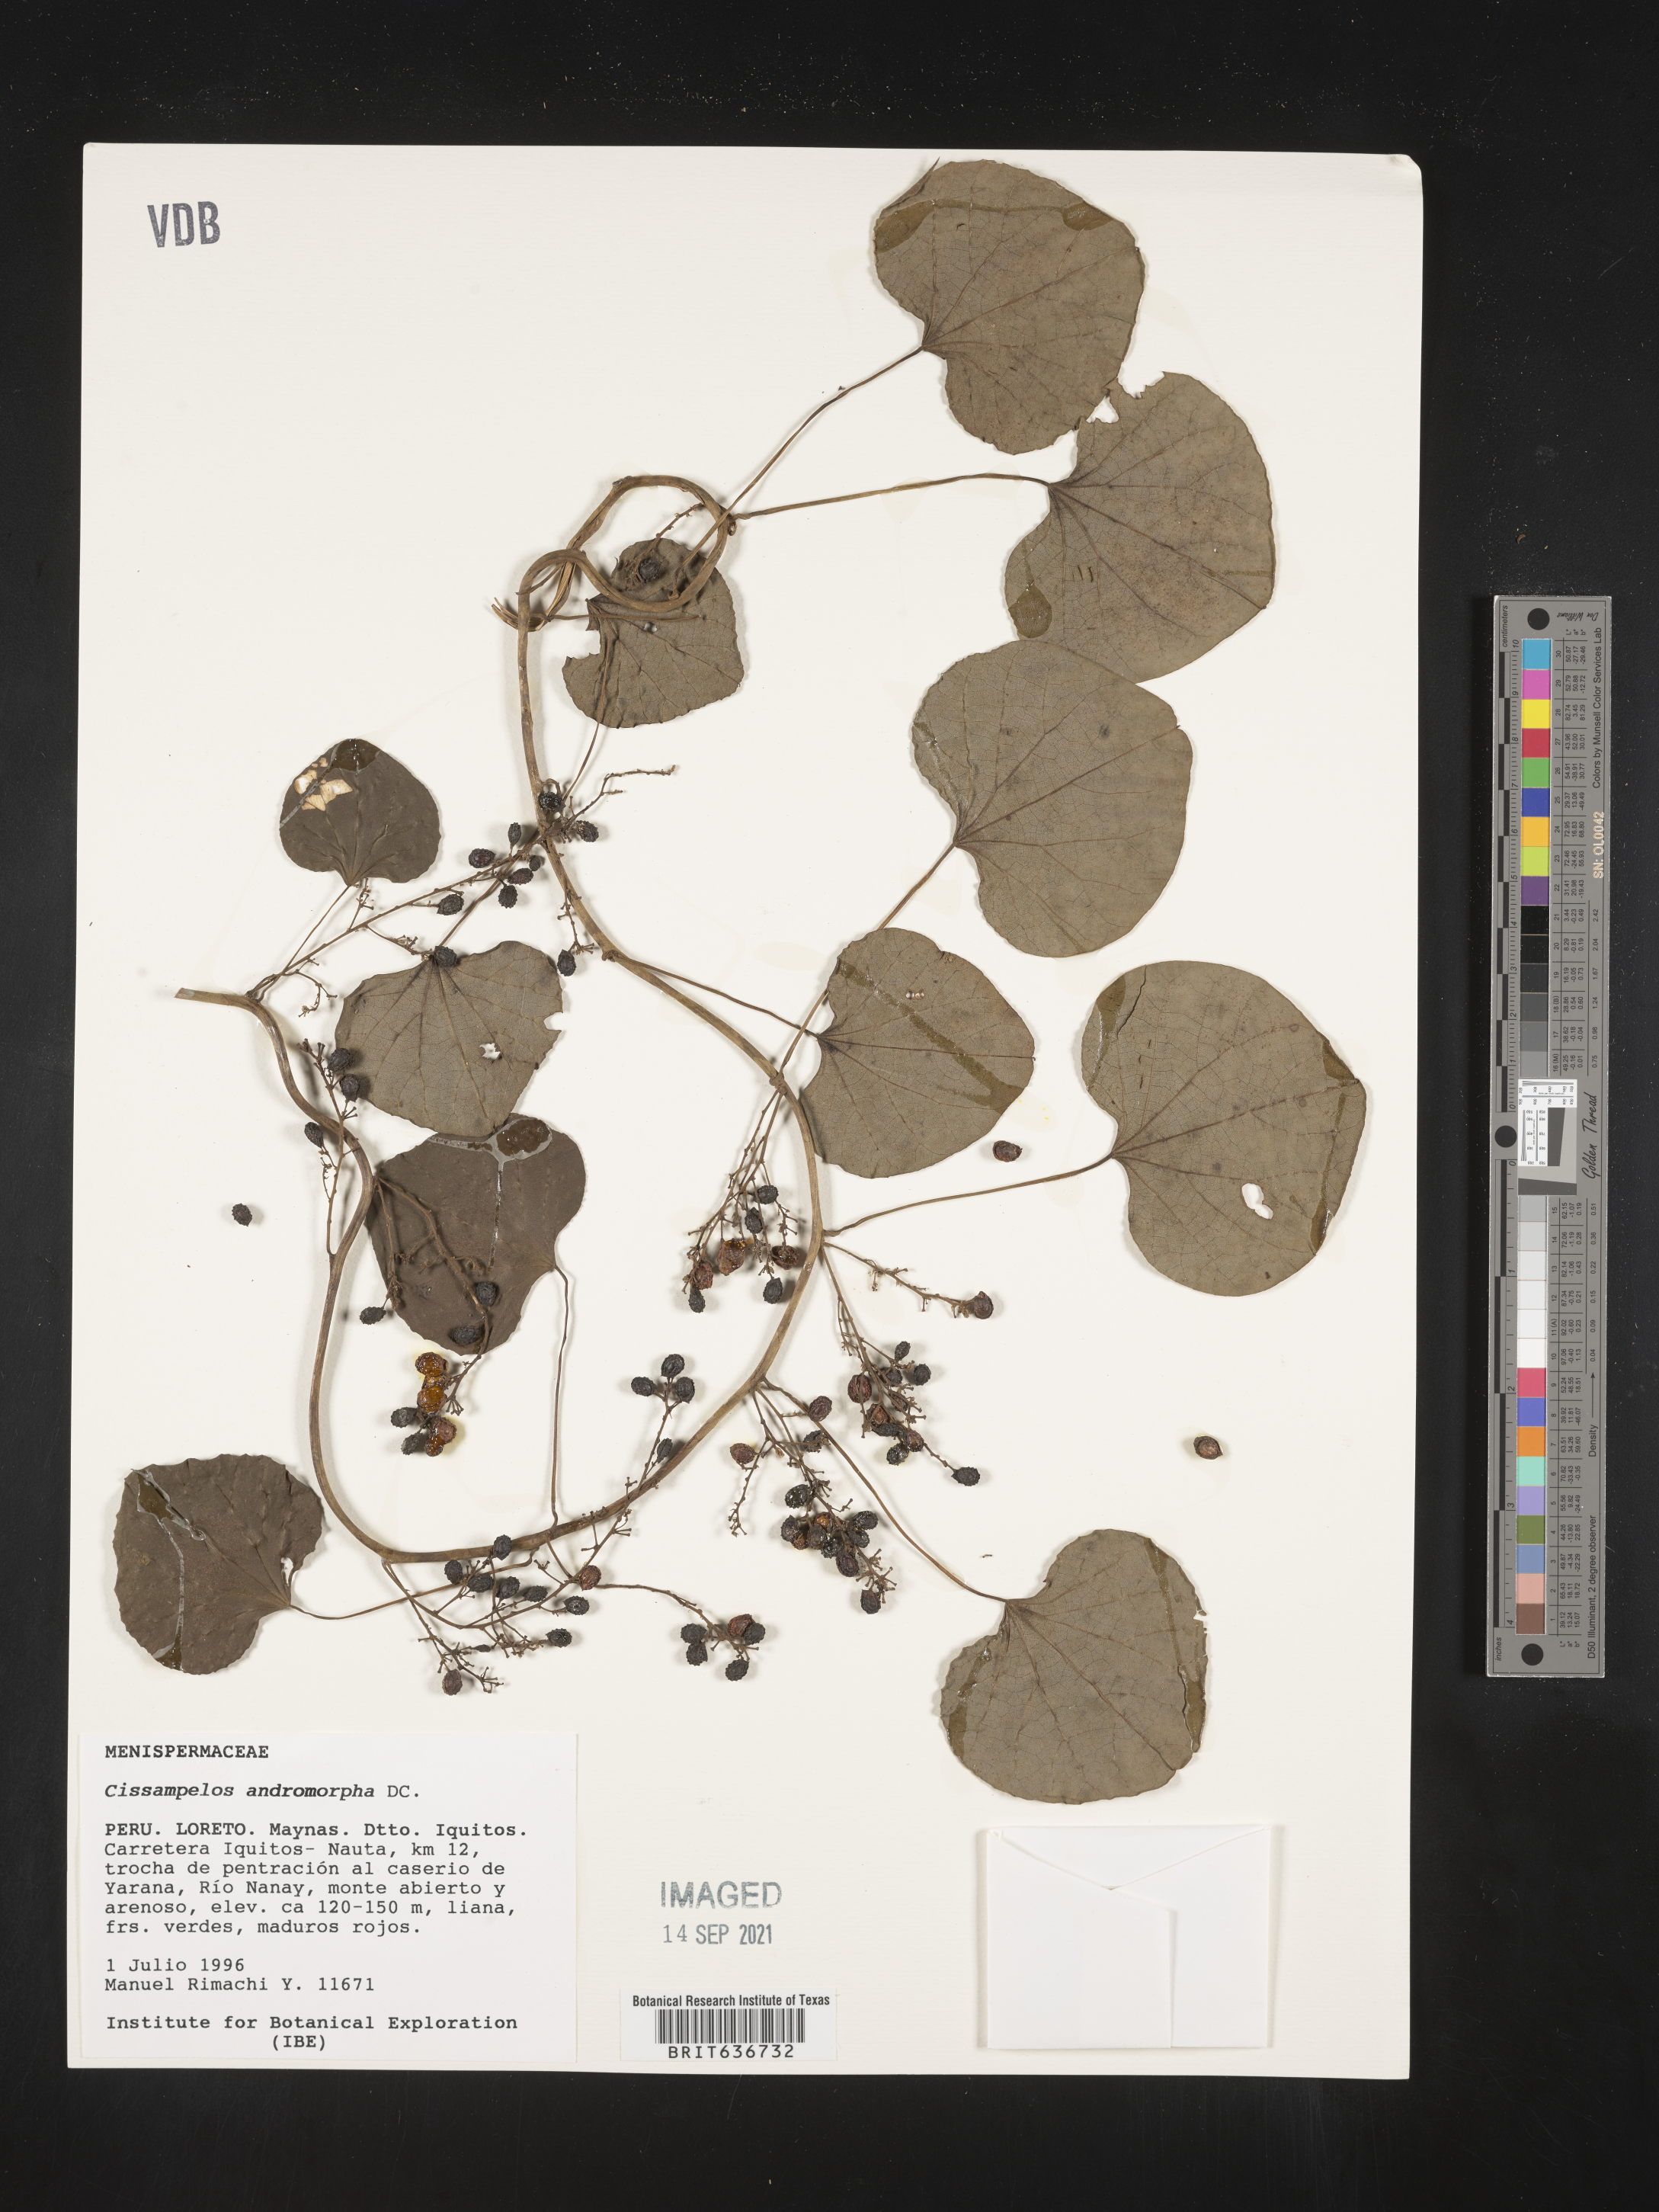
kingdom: Plantae
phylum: Tracheophyta
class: Magnoliopsida
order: Ranunculales
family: Menispermaceae
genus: Cissampelos
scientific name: Cissampelos
